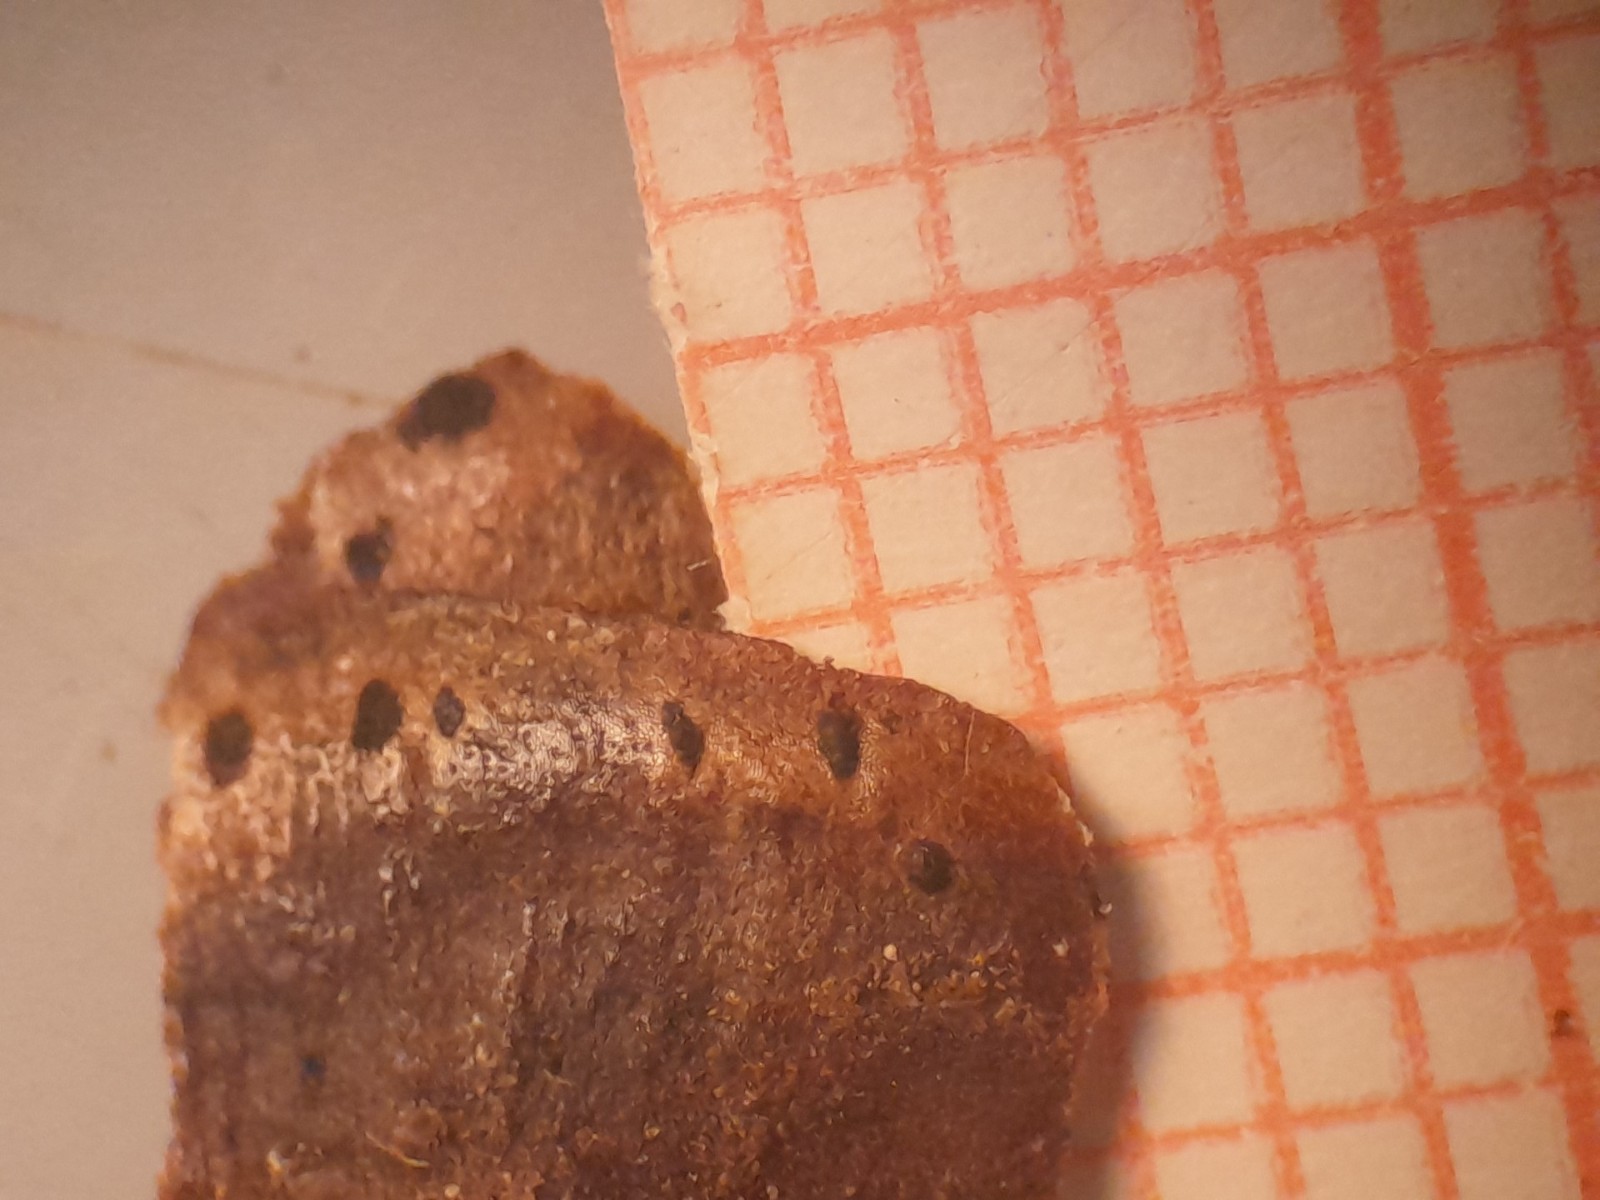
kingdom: Fungi
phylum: Ascomycota
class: Dothideomycetes
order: Pleosporales
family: Melanommataceae
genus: Phragmotrichum
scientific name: Phragmotrichum chailletii
